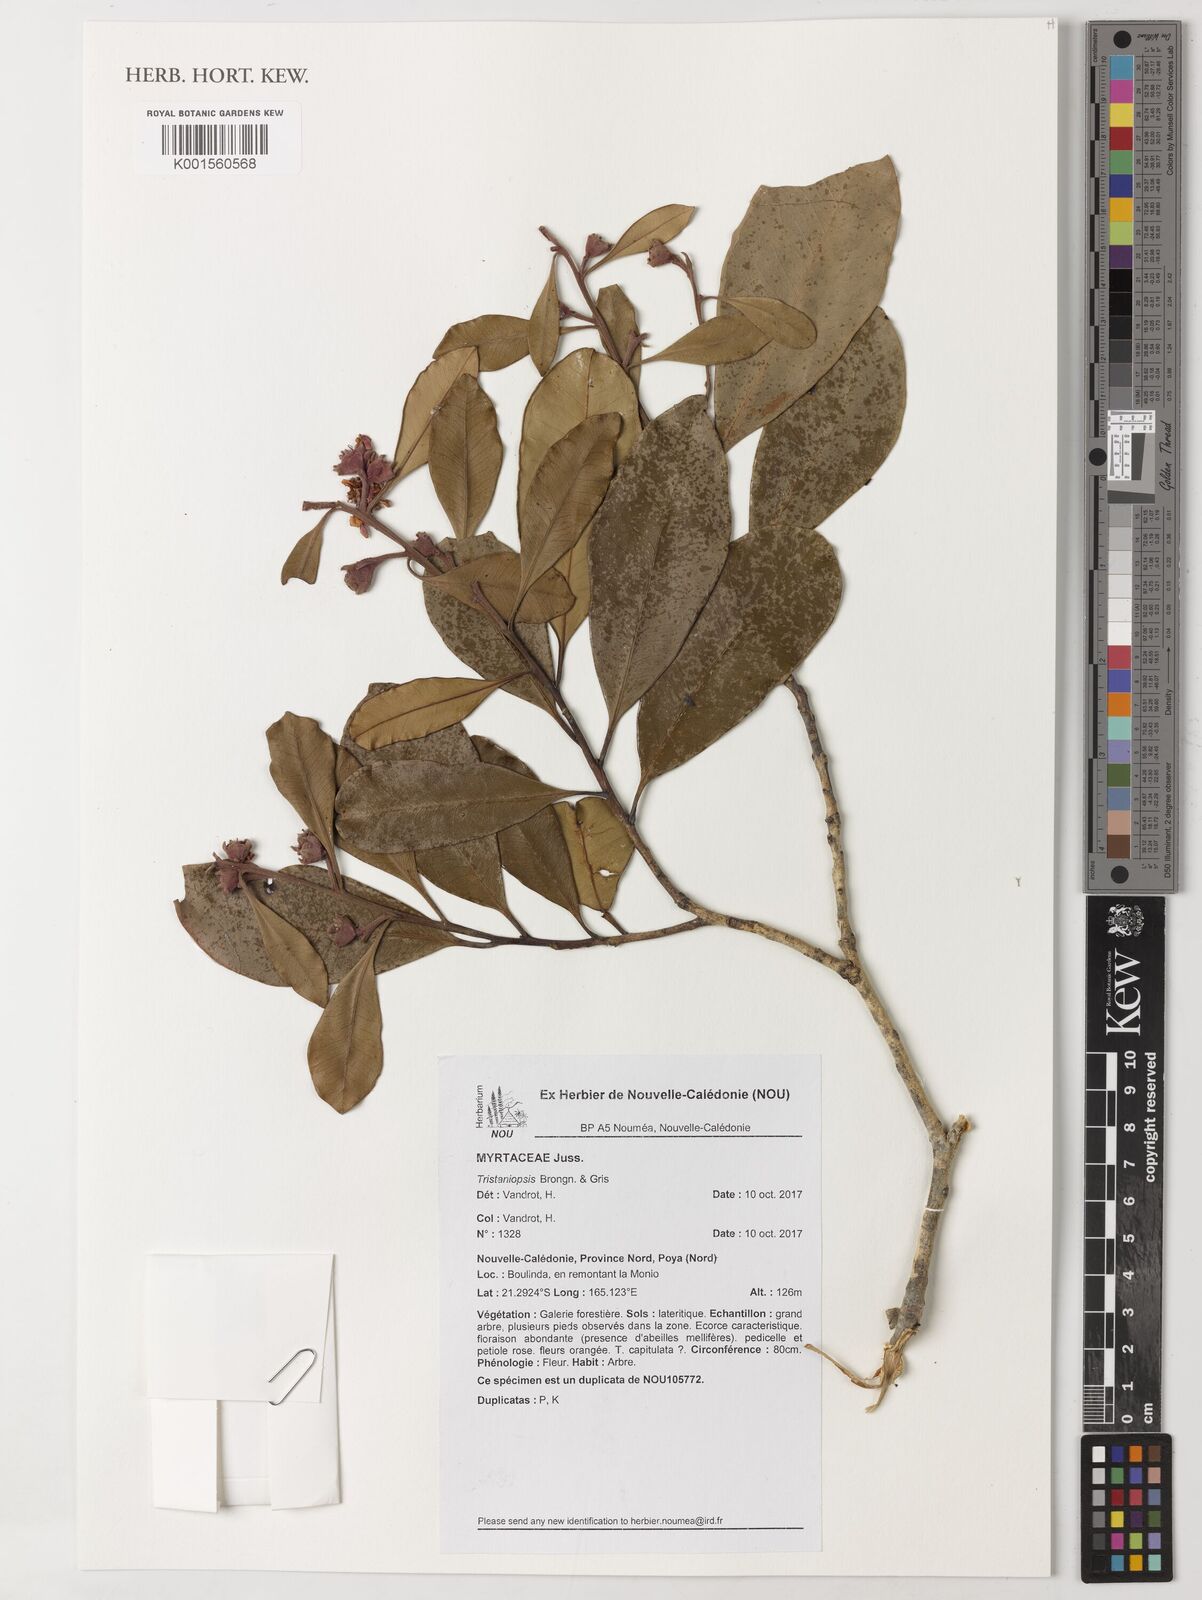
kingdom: Plantae
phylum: Tracheophyta
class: Magnoliopsida
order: Myrtales
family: Myrtaceae
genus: Tristaniopsis
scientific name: Tristaniopsis
